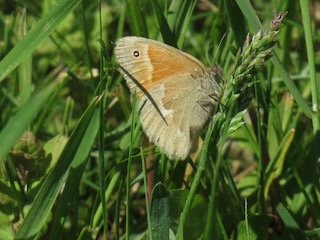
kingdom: Animalia
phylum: Arthropoda
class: Insecta
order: Lepidoptera
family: Nymphalidae
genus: Coenonympha
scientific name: Coenonympha tullia
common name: Large Heath
